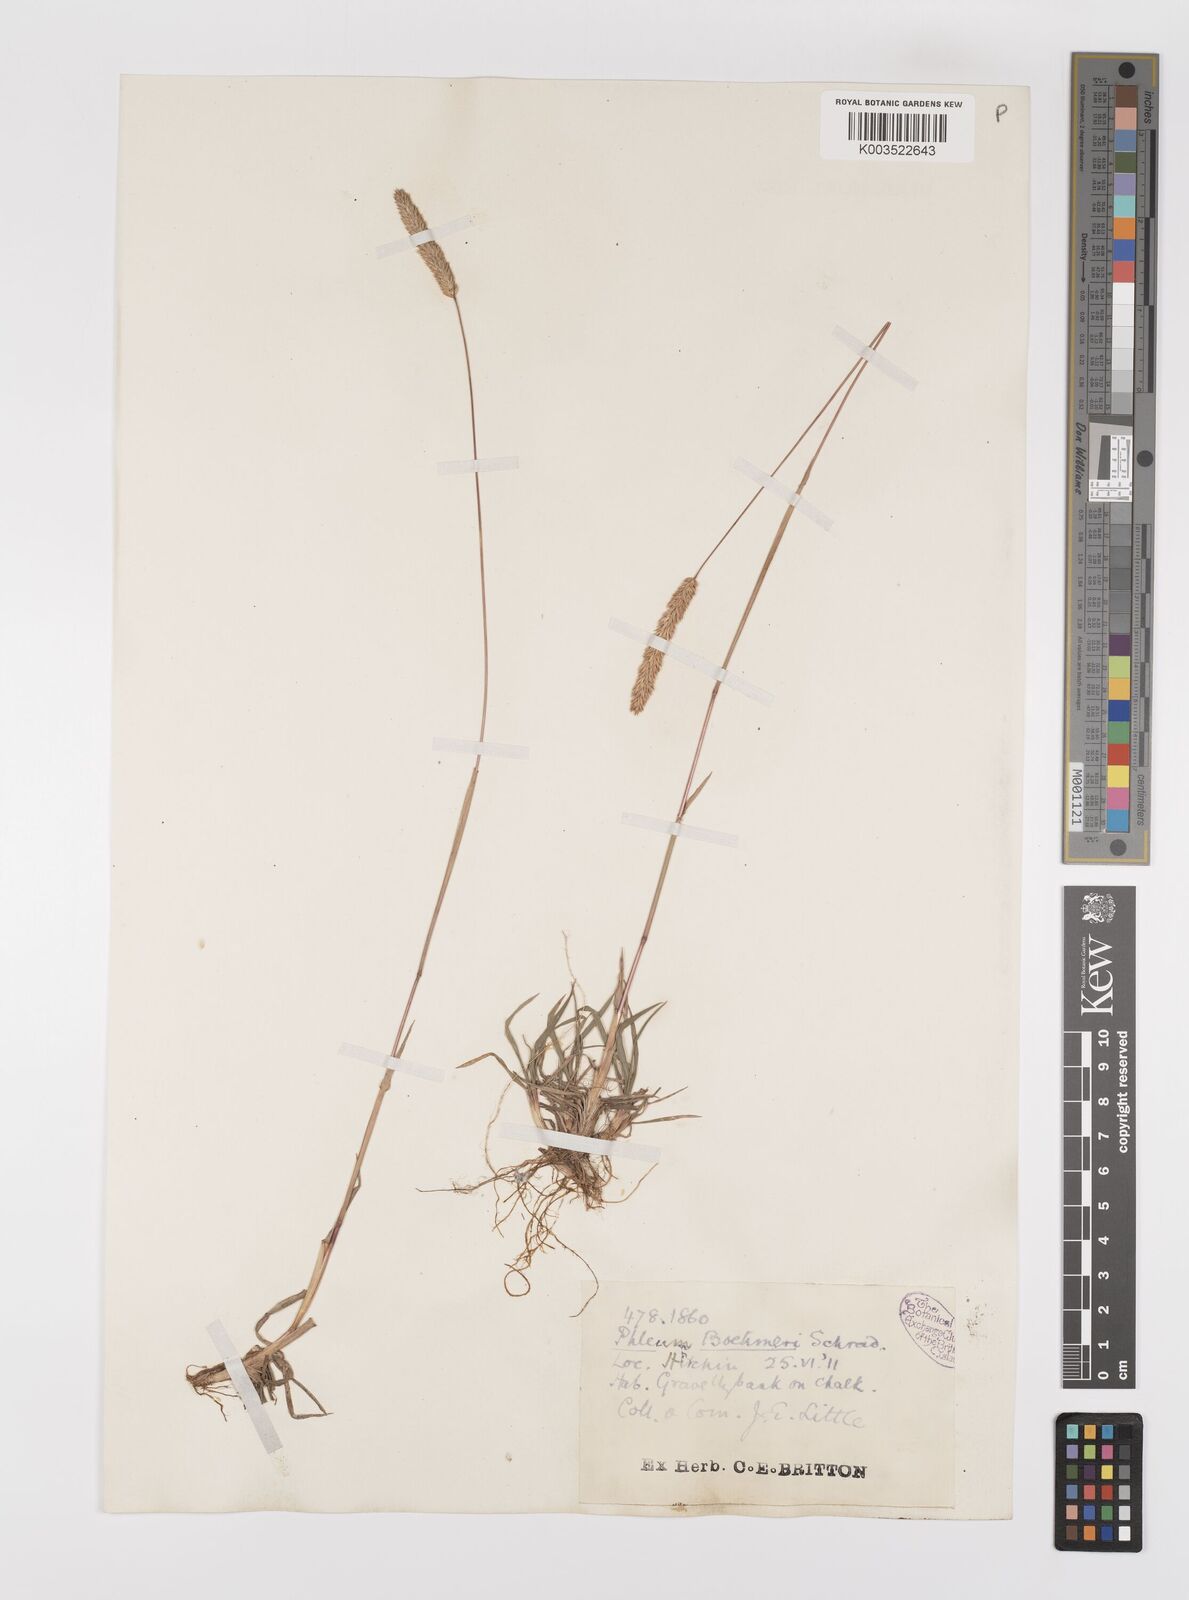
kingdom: Plantae
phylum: Tracheophyta
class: Liliopsida
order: Poales
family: Poaceae
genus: Phleum
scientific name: Phleum phleoides
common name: Purple-stem cat's-tail
